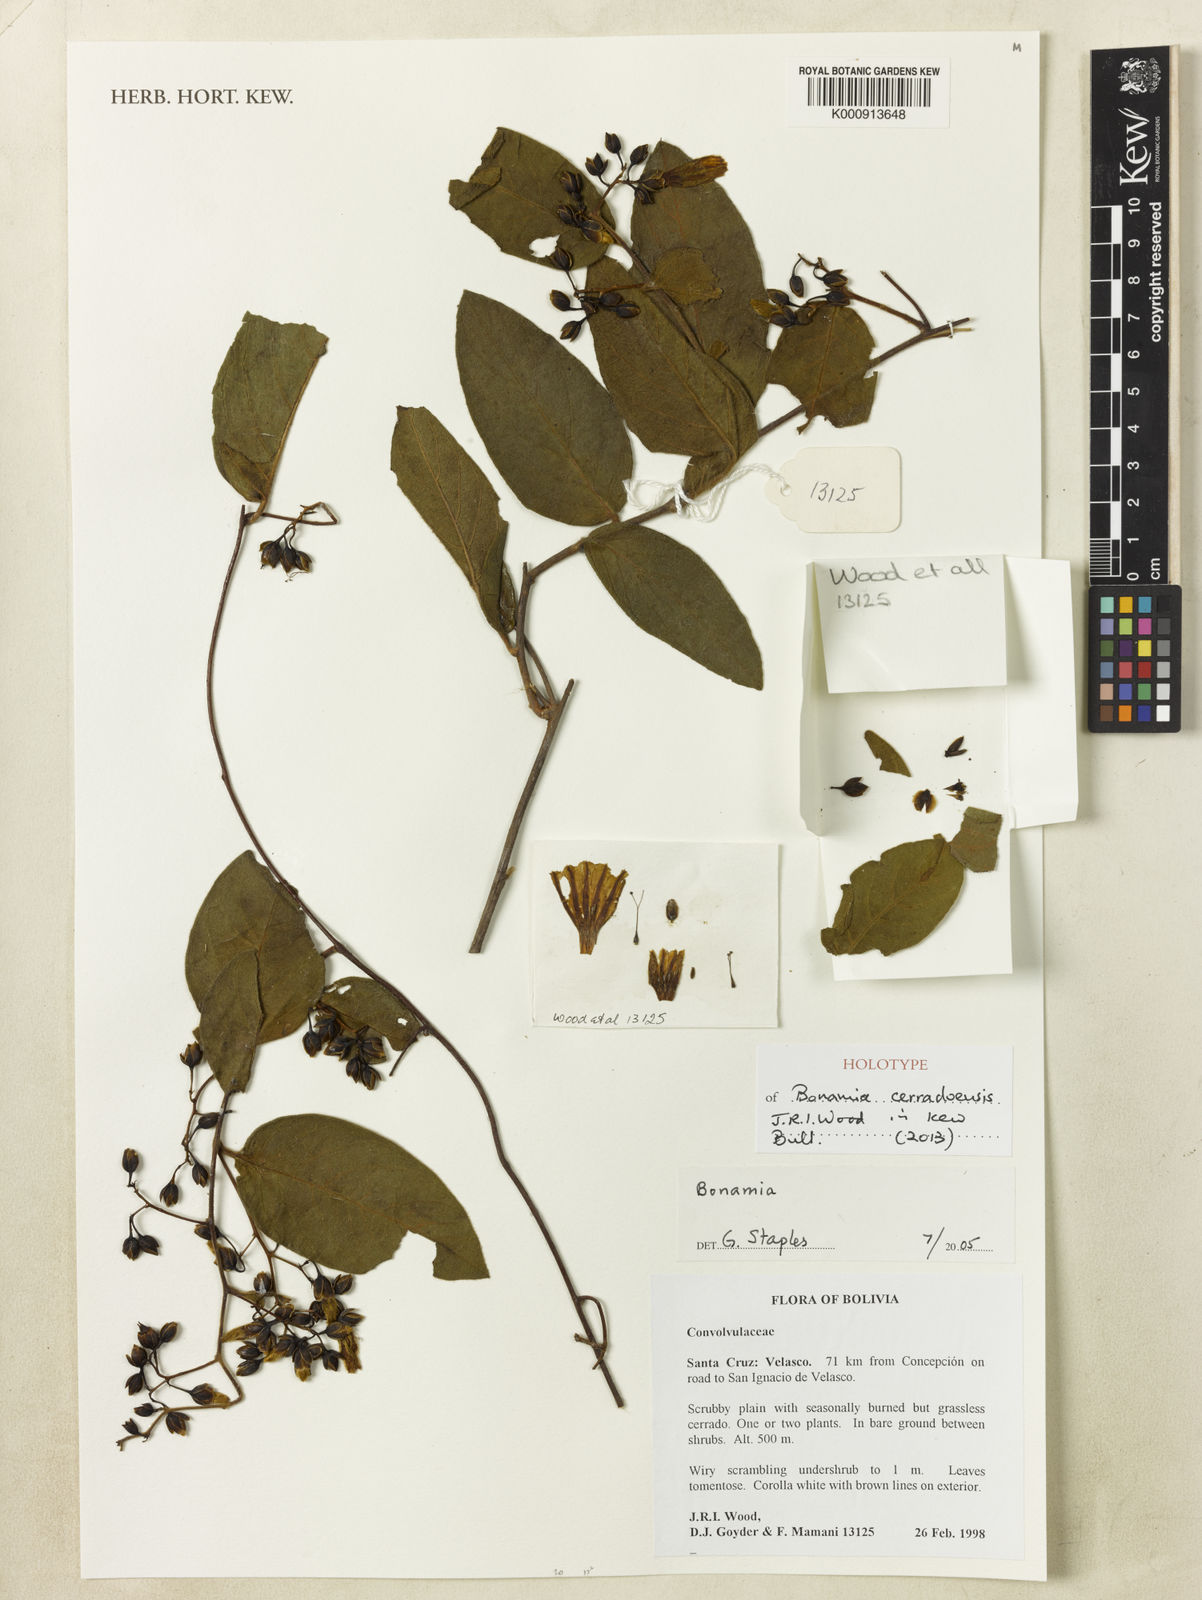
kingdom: Plantae
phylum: Tracheophyta
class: Magnoliopsida
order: Solanales
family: Convolvulaceae
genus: Bonamia
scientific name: Bonamia cerradoensis
